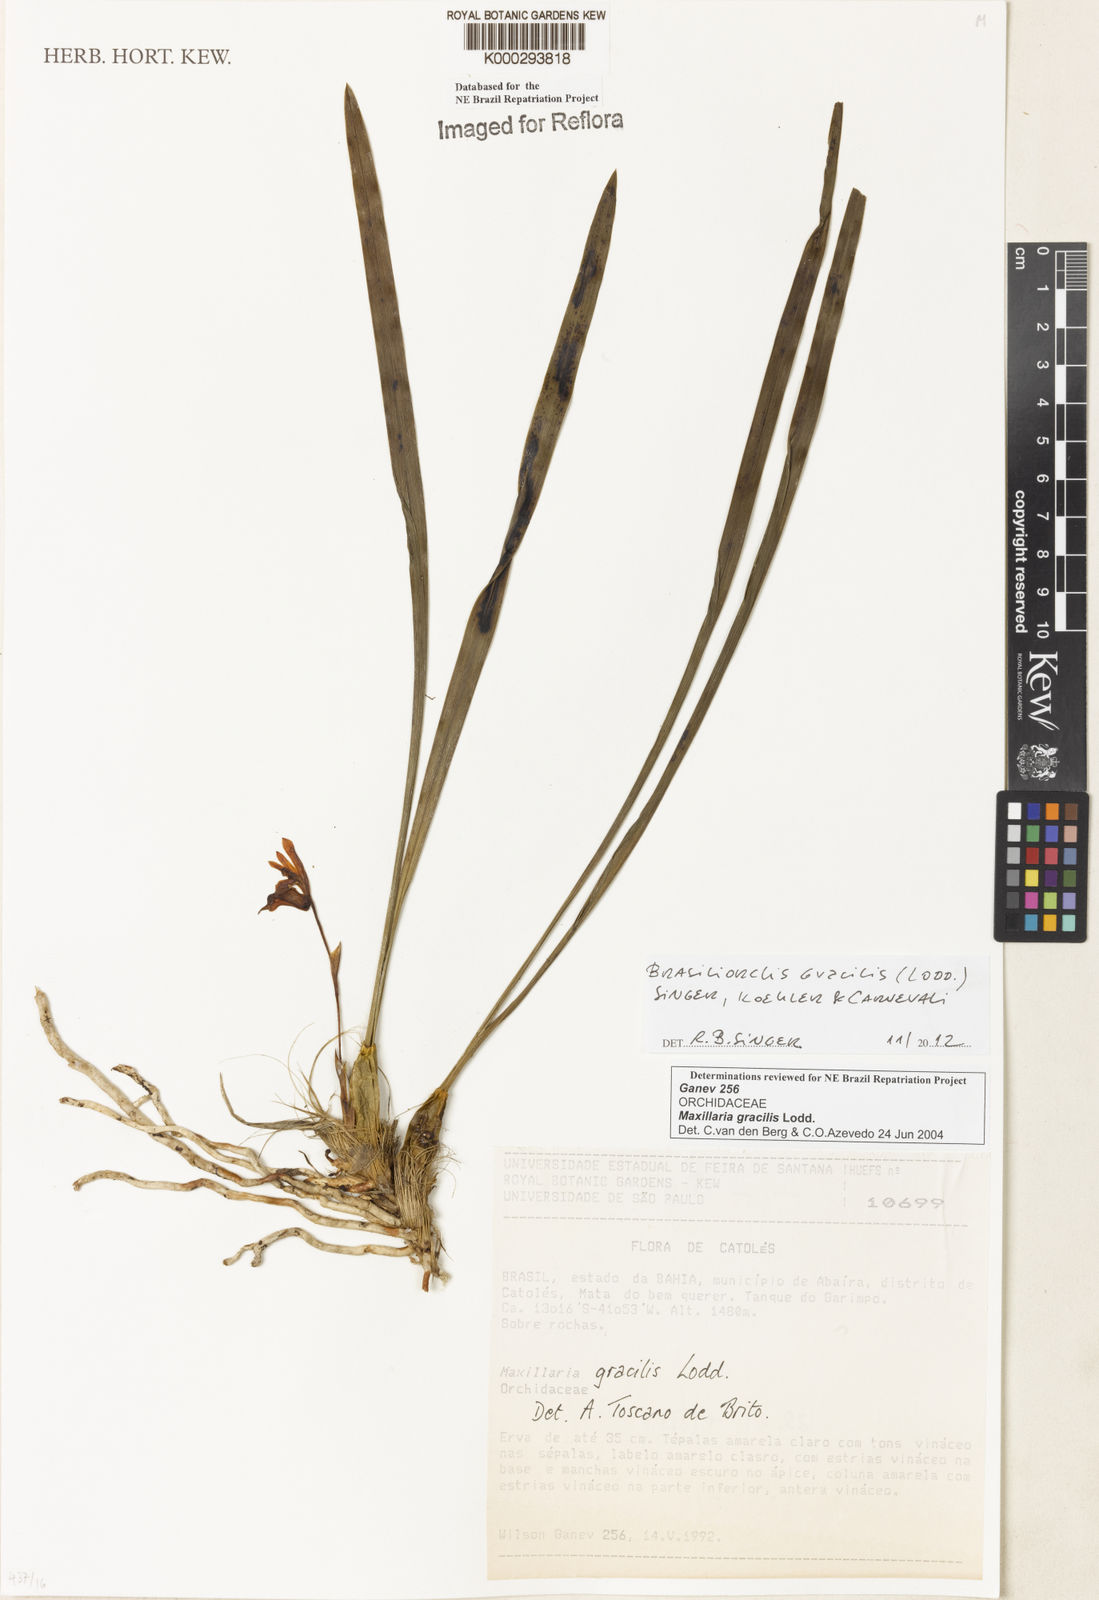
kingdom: Plantae
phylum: Tracheophyta
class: Liliopsida
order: Asparagales
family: Orchidaceae
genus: Maxillaria
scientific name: Maxillaria
